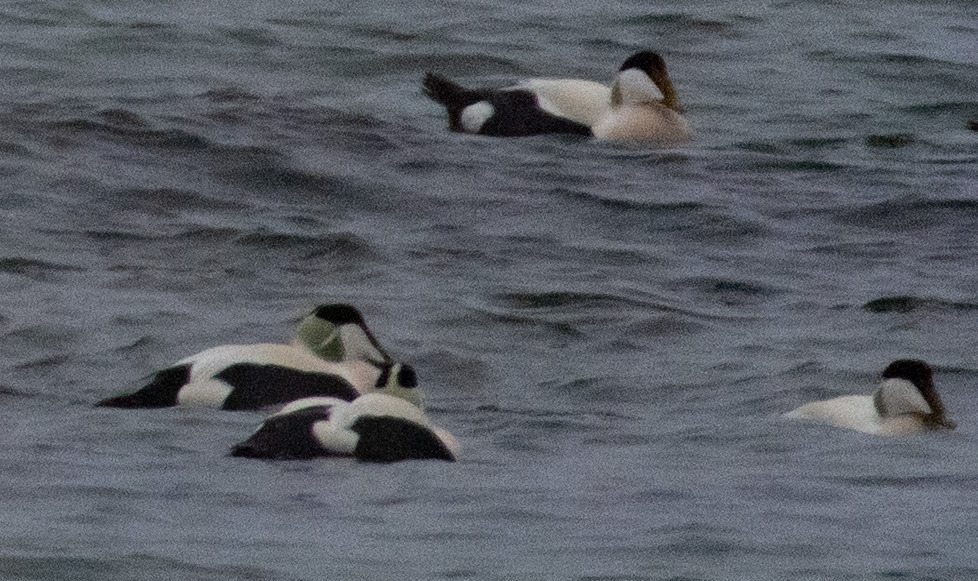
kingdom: Animalia
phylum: Chordata
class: Aves
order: Anseriformes
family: Anatidae
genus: Somateria
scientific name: Somateria mollissima
